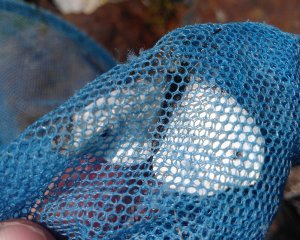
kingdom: Animalia
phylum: Arthropoda
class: Insecta
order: Lepidoptera
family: Pieridae
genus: Pieris
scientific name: Pieris rapae
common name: Cabbage White
